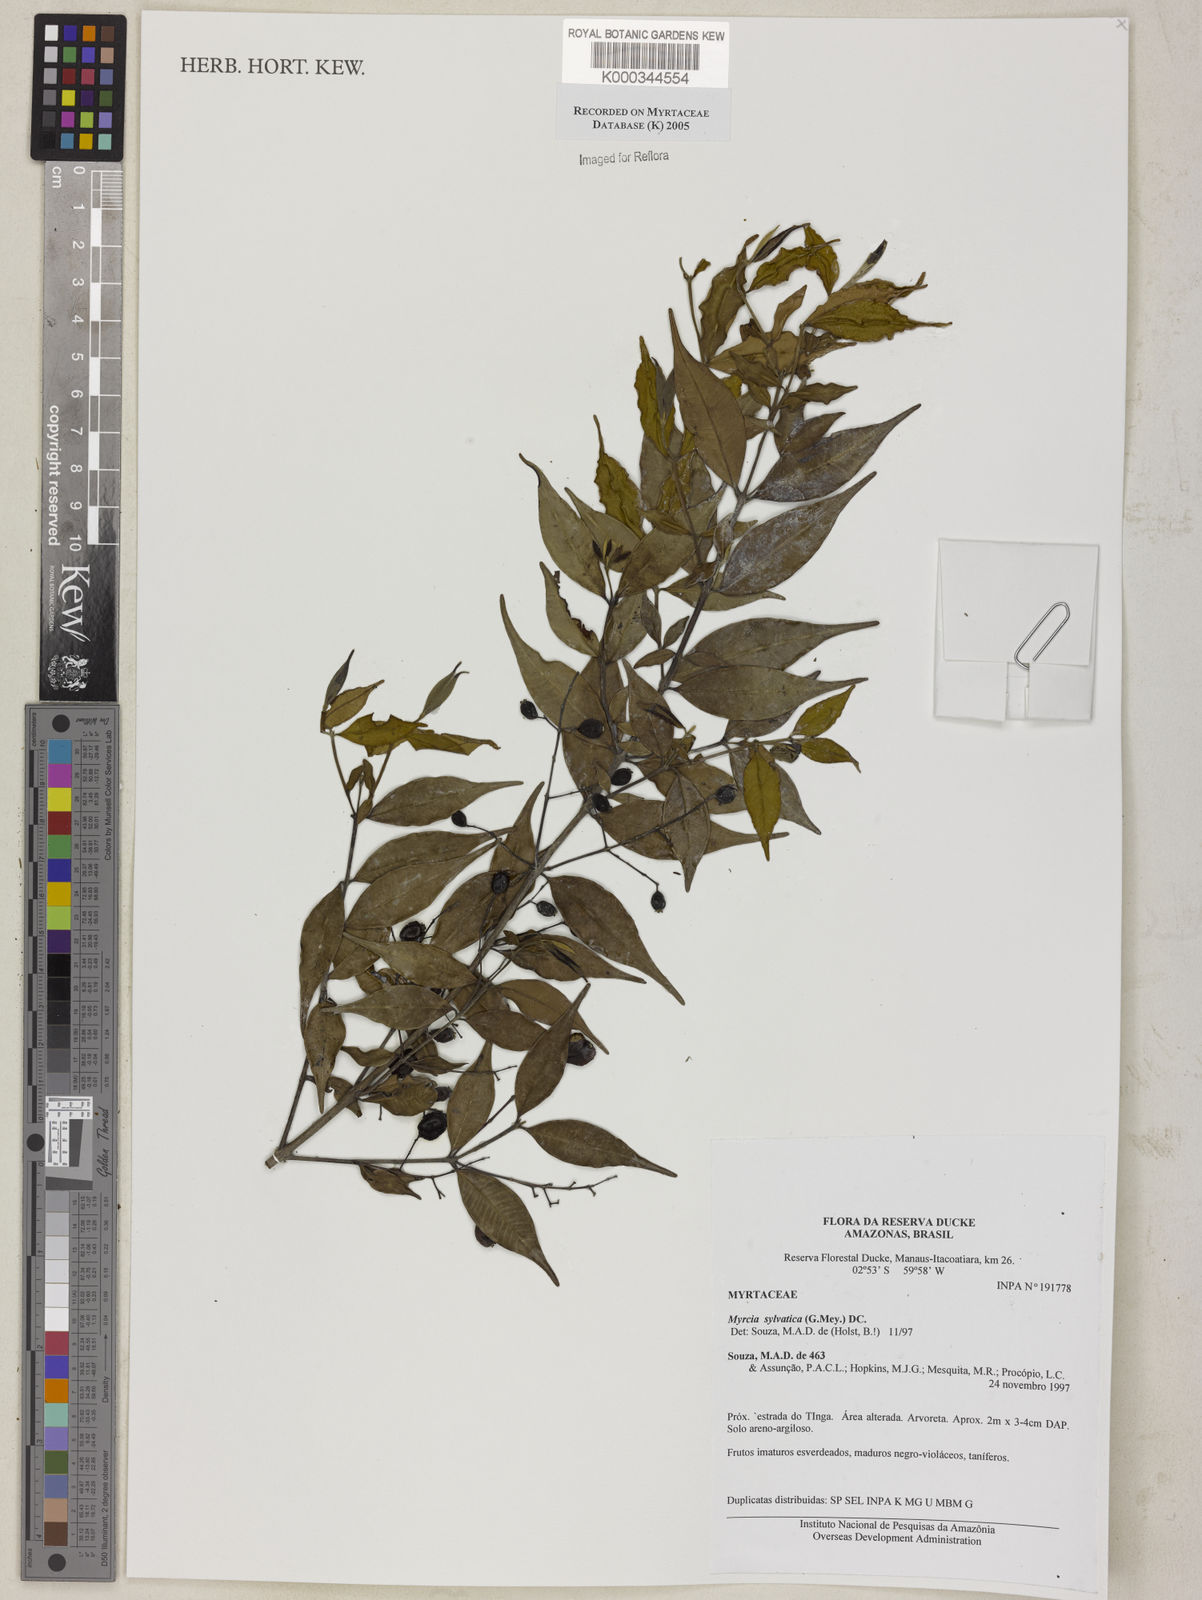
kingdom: Plantae
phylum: Tracheophyta
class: Magnoliopsida
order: Myrtales
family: Myrtaceae
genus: Myrcia
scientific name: Myrcia sylvatica
